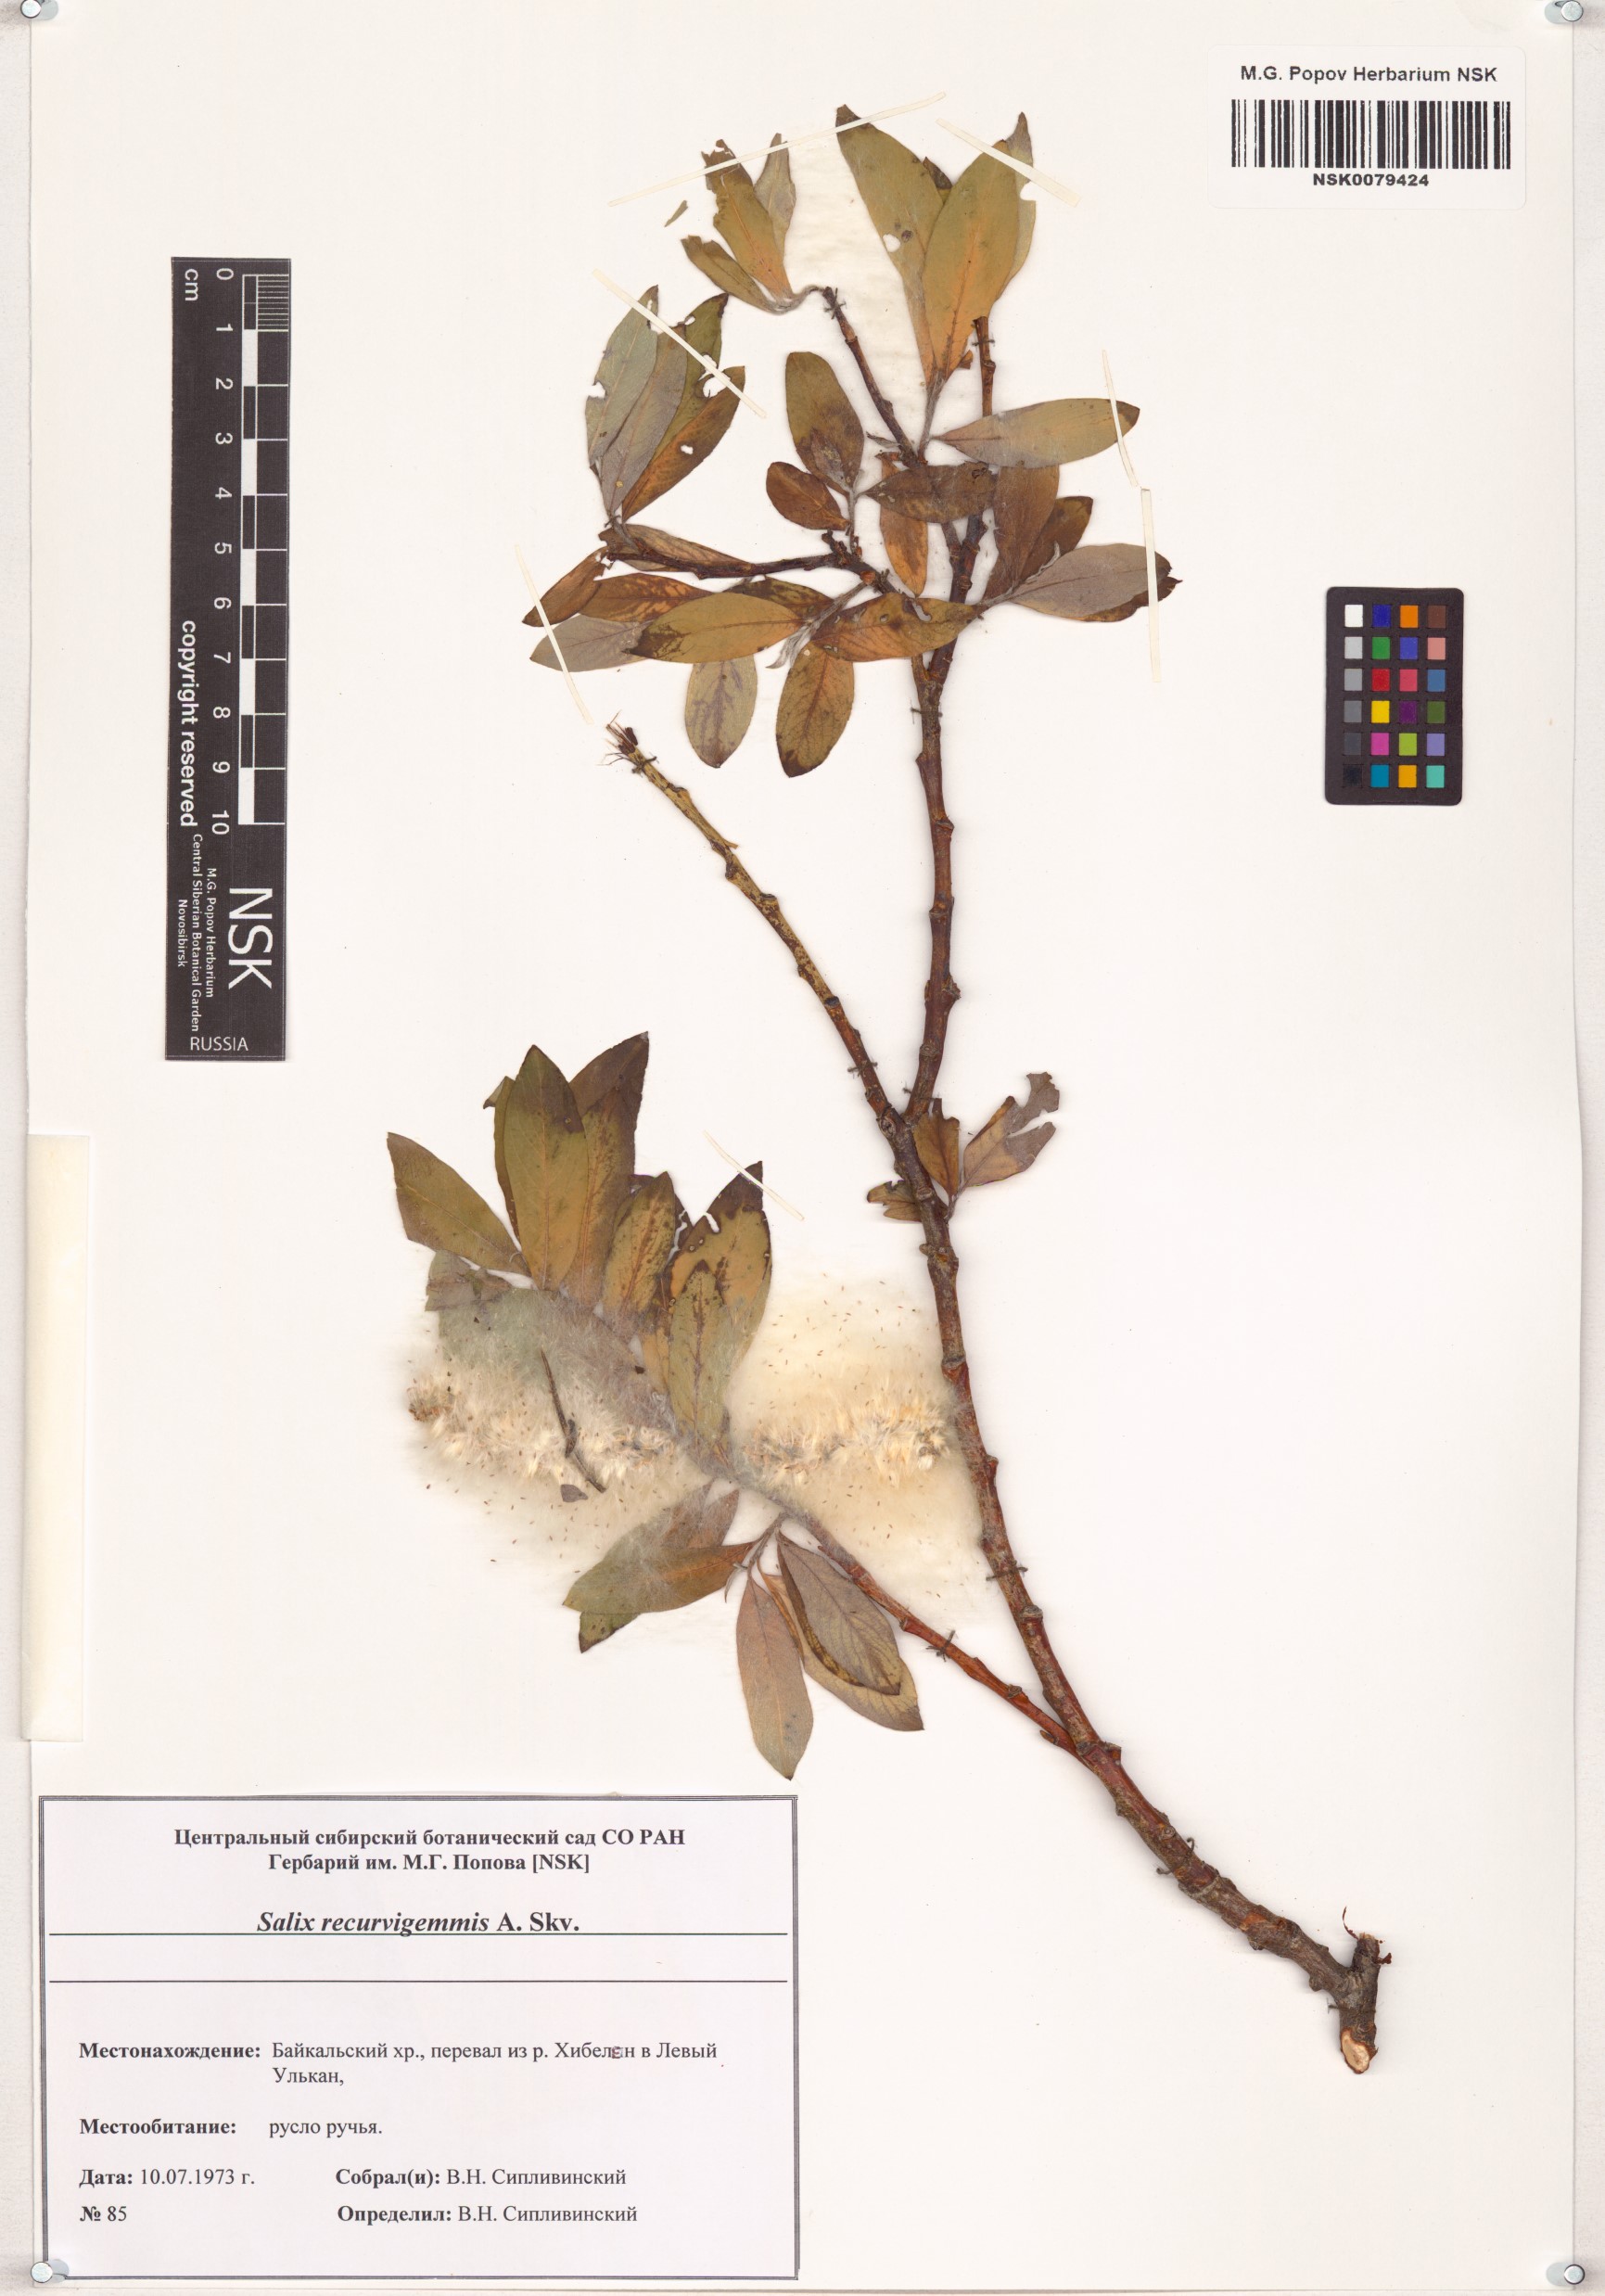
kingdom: Plantae
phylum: Tracheophyta
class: Magnoliopsida
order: Malpighiales
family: Salicaceae
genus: Salix
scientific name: Salix recurvigemmata
